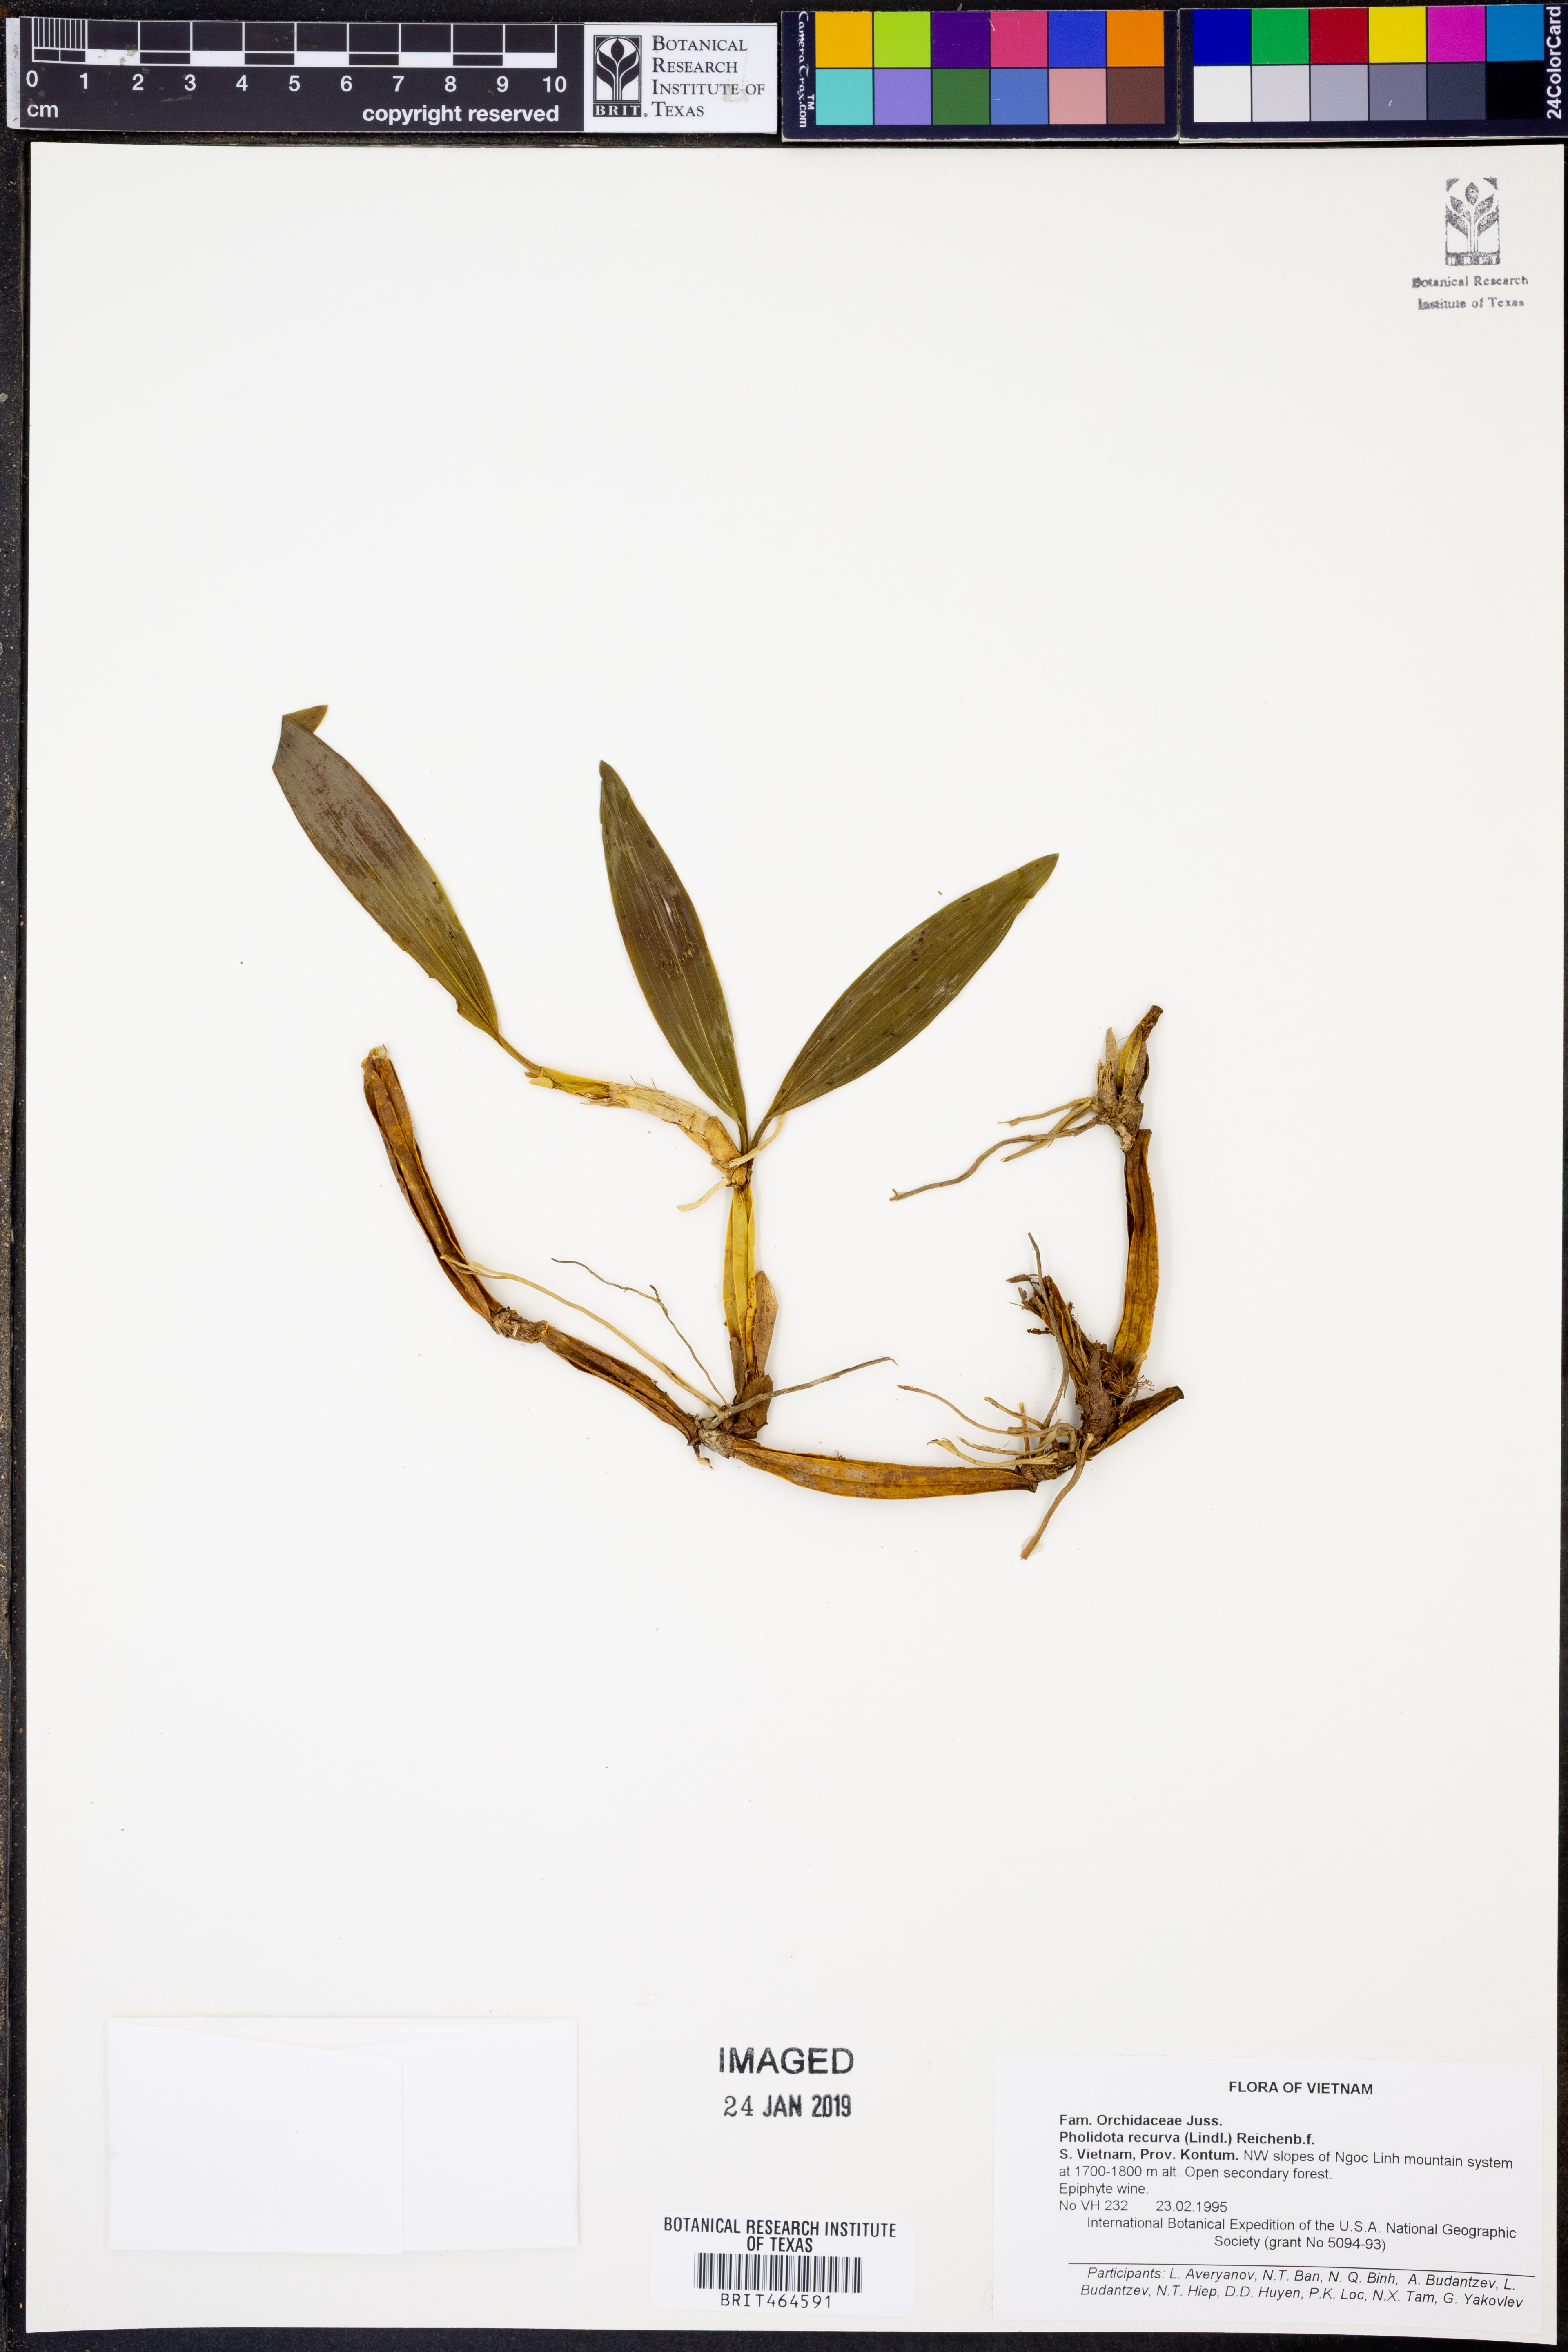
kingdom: Plantae
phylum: Tracheophyta
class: Liliopsida
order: Asparagales
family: Orchidaceae
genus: Coelogyne
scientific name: Coelogyne recurva
